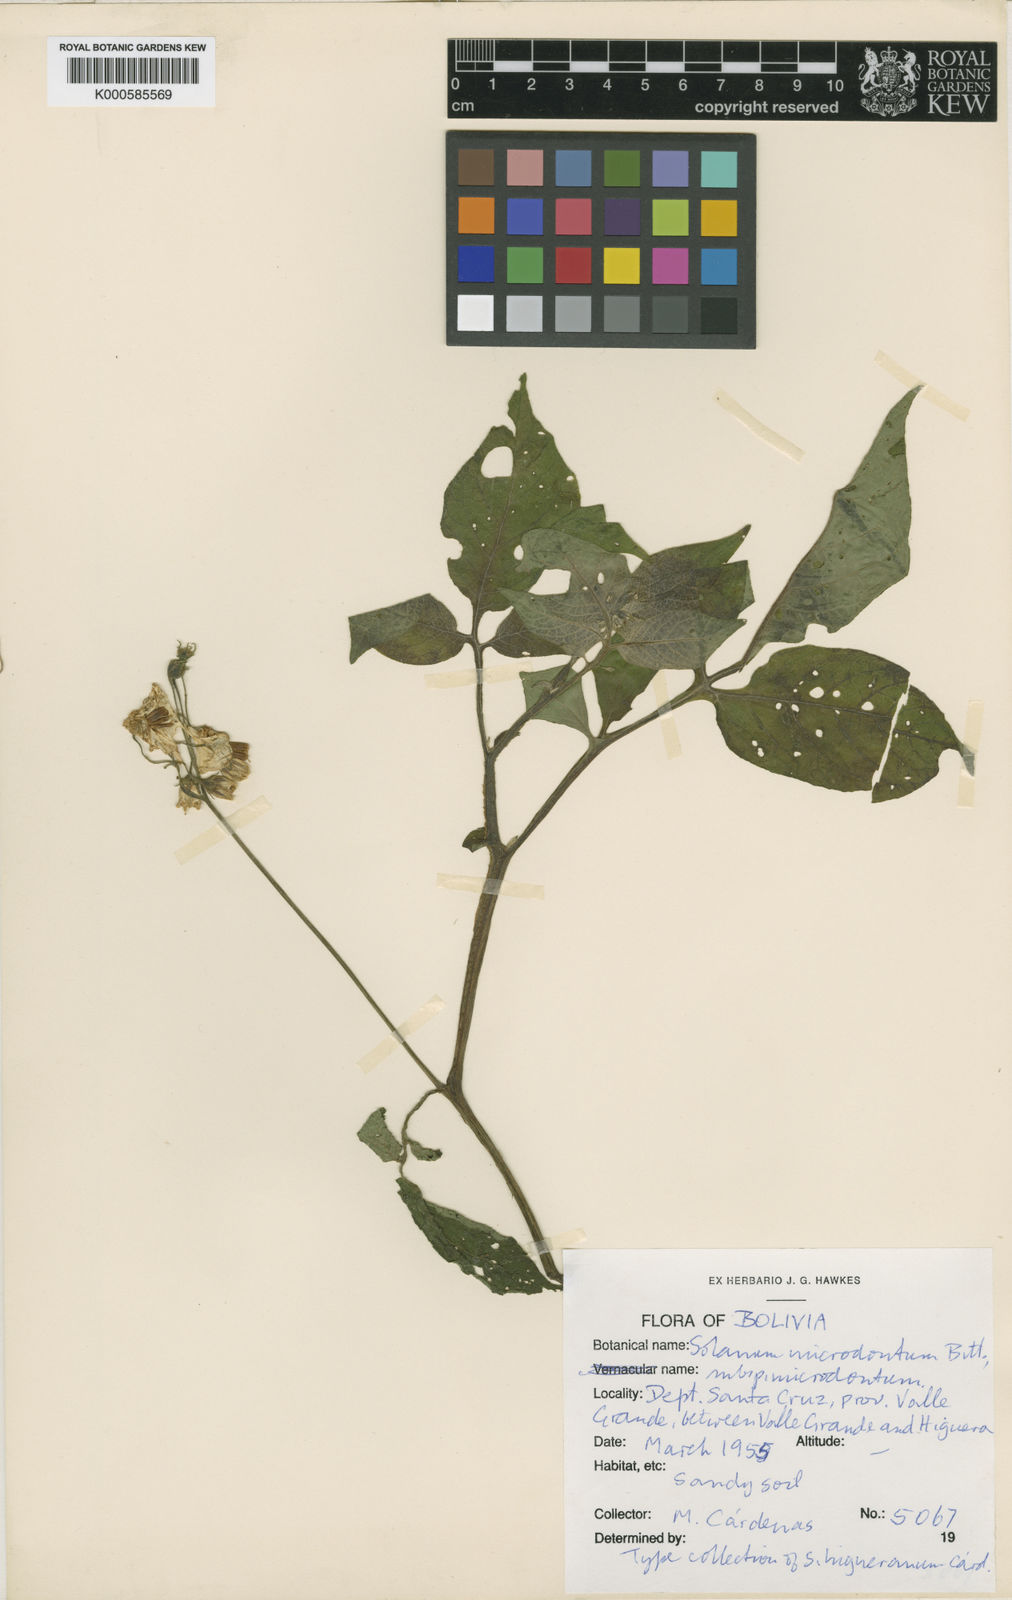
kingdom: Plantae
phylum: Tracheophyta
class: Magnoliopsida
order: Solanales
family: Solanaceae
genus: Solanum
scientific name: Solanum microdontum
